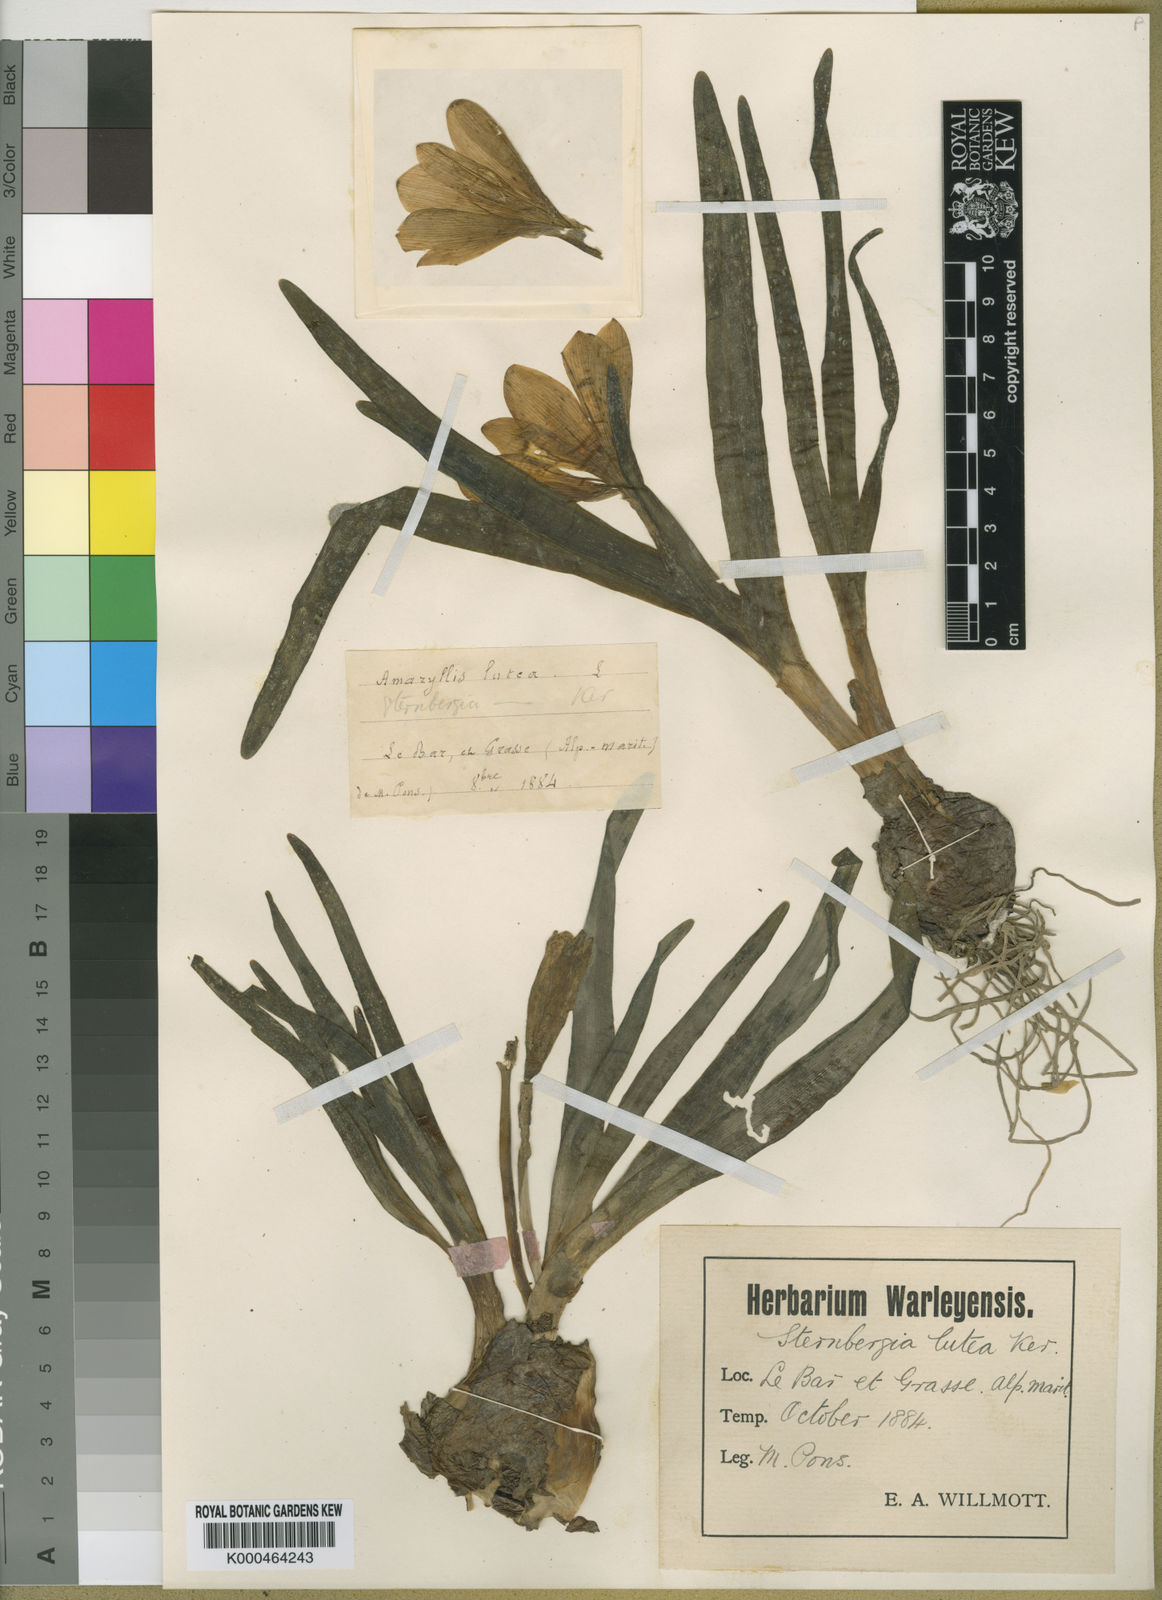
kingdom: Plantae
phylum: Tracheophyta
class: Liliopsida
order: Asparagales
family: Amaryllidaceae
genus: Sternbergia
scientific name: Sternbergia
